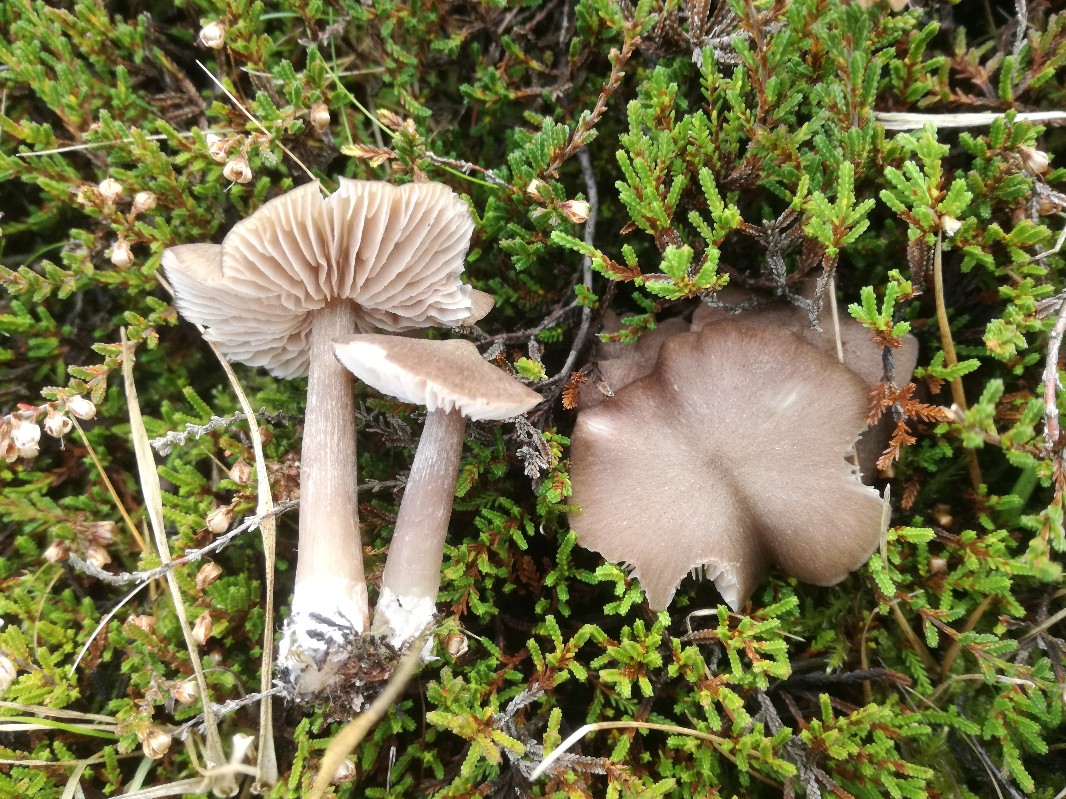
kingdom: Fungi
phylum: Basidiomycota
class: Agaricomycetes
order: Agaricales
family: Entolomataceae
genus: Entoloma
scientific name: Entoloma porphyrophaeum
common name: porfyrbrun rødblad
